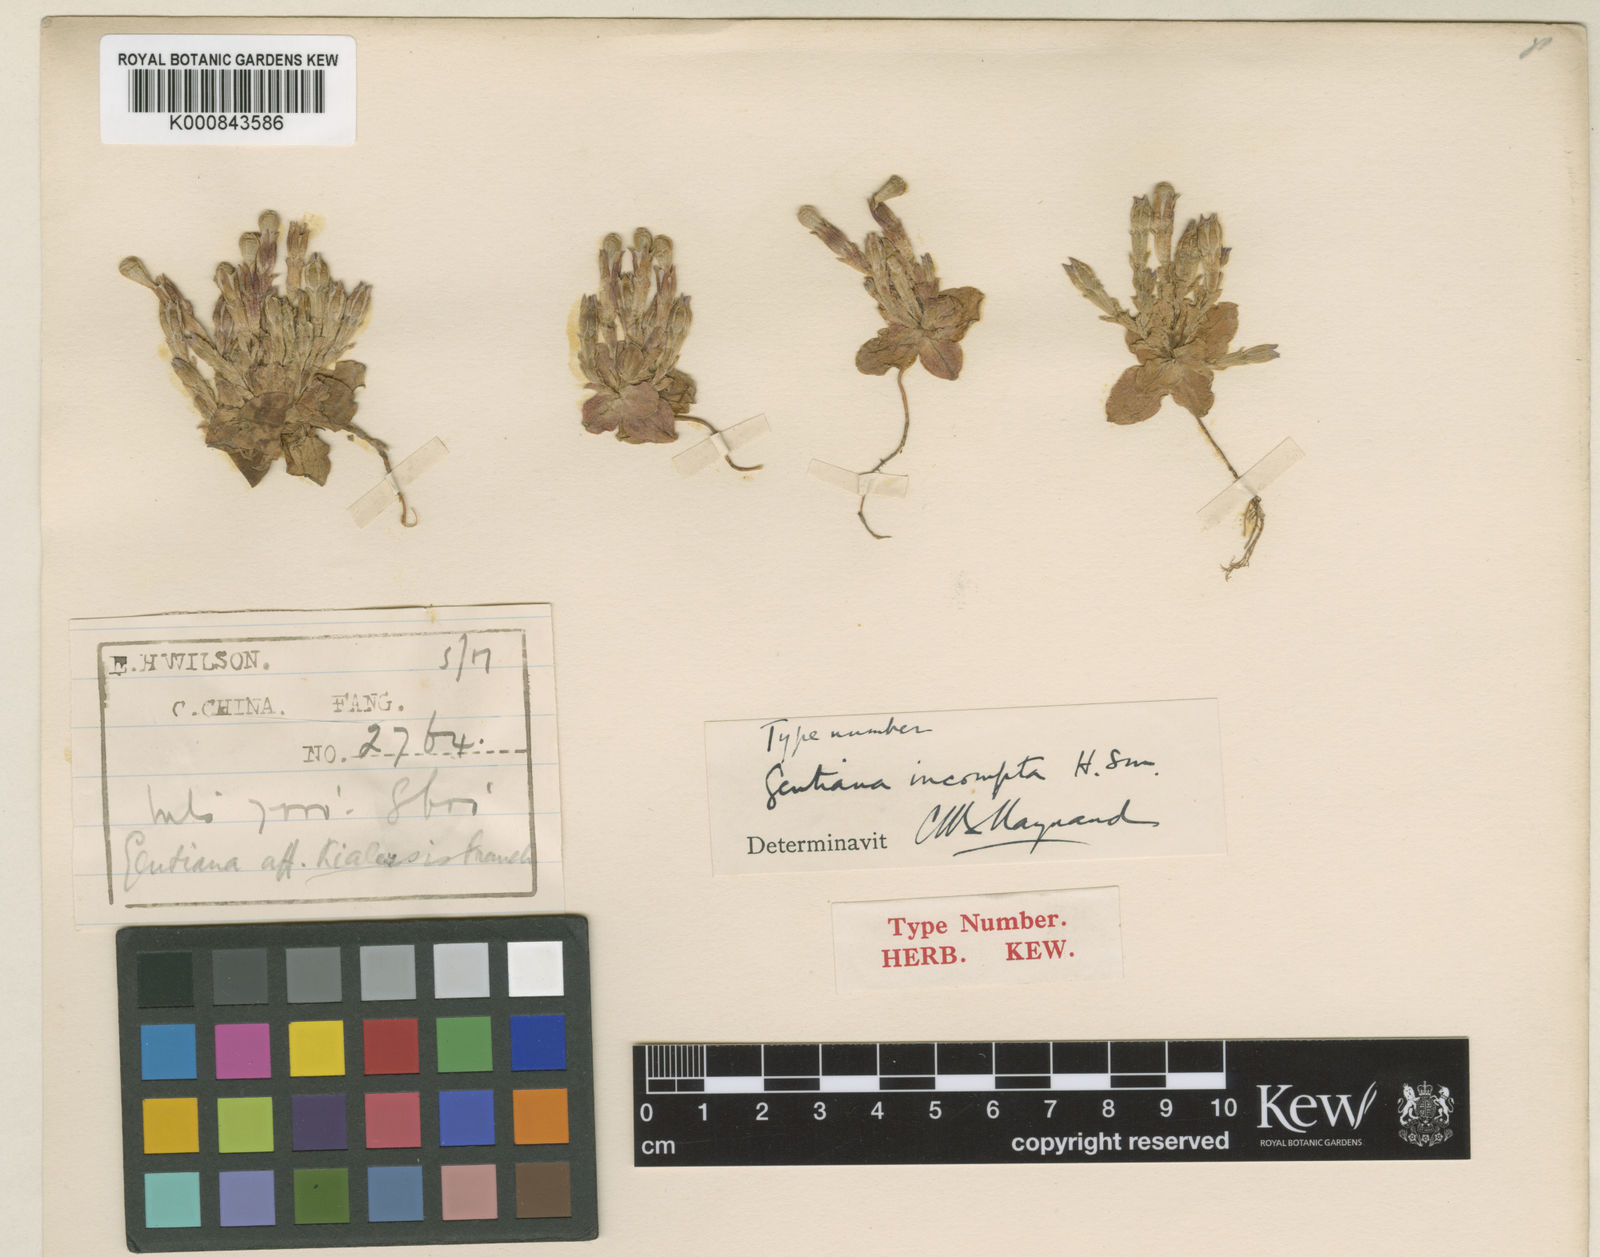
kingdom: Plantae
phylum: Tracheophyta
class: Magnoliopsida
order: Gentianales
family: Gentianaceae
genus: Gentiana
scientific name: Gentiana chungtienensis
